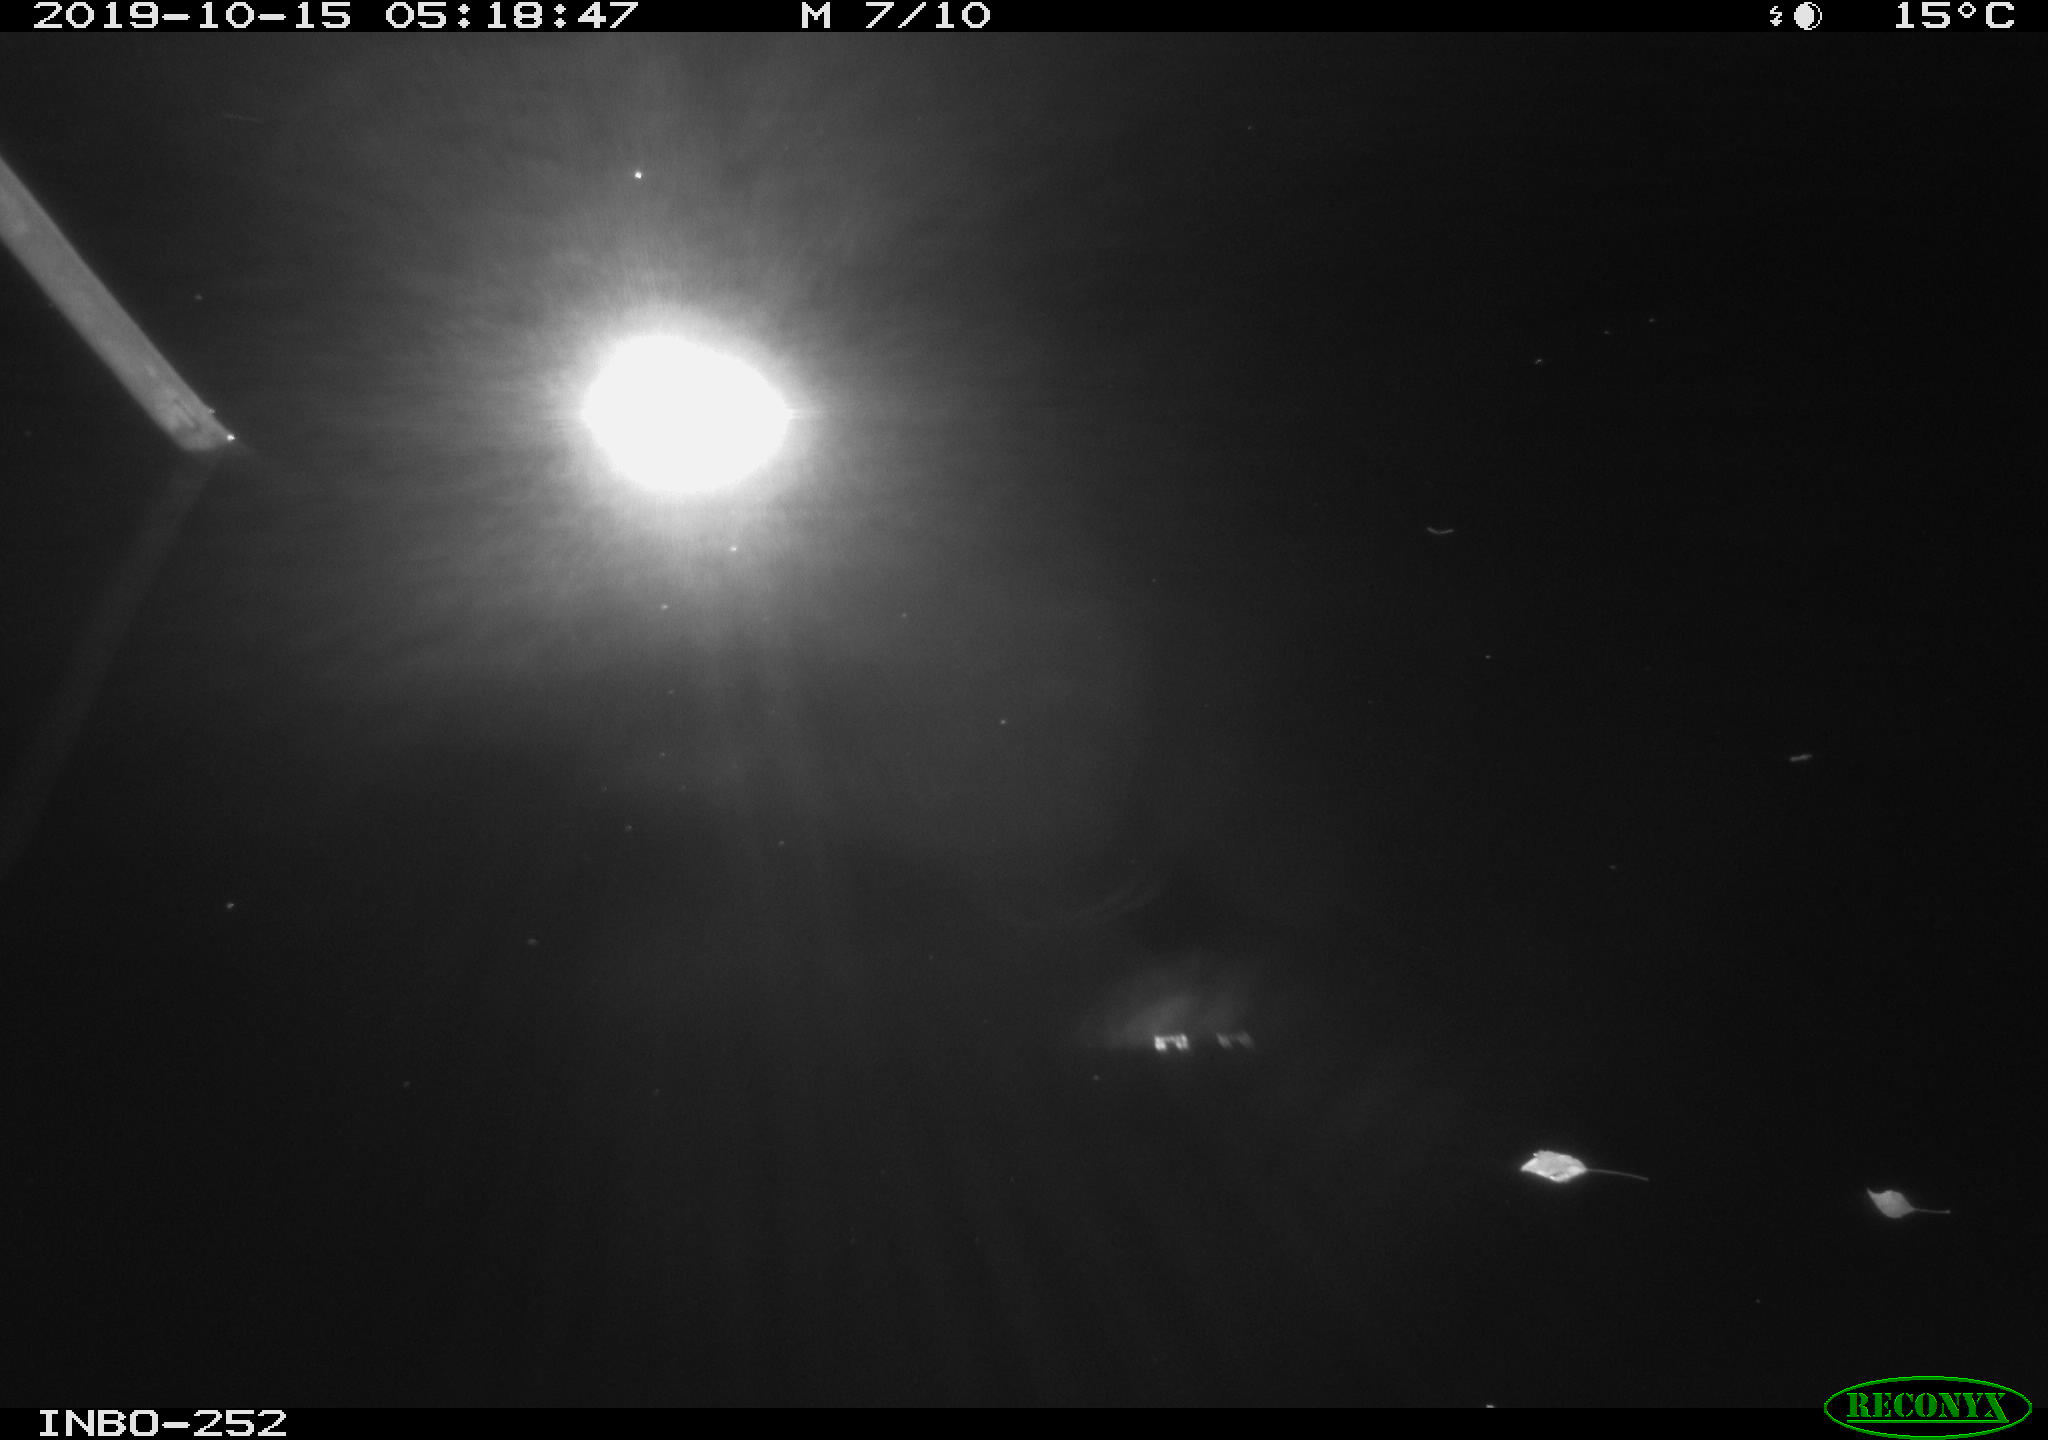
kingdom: Animalia
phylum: Chordata
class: Aves
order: Anseriformes
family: Anatidae
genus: Anas
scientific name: Anas platyrhynchos
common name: Mallard
